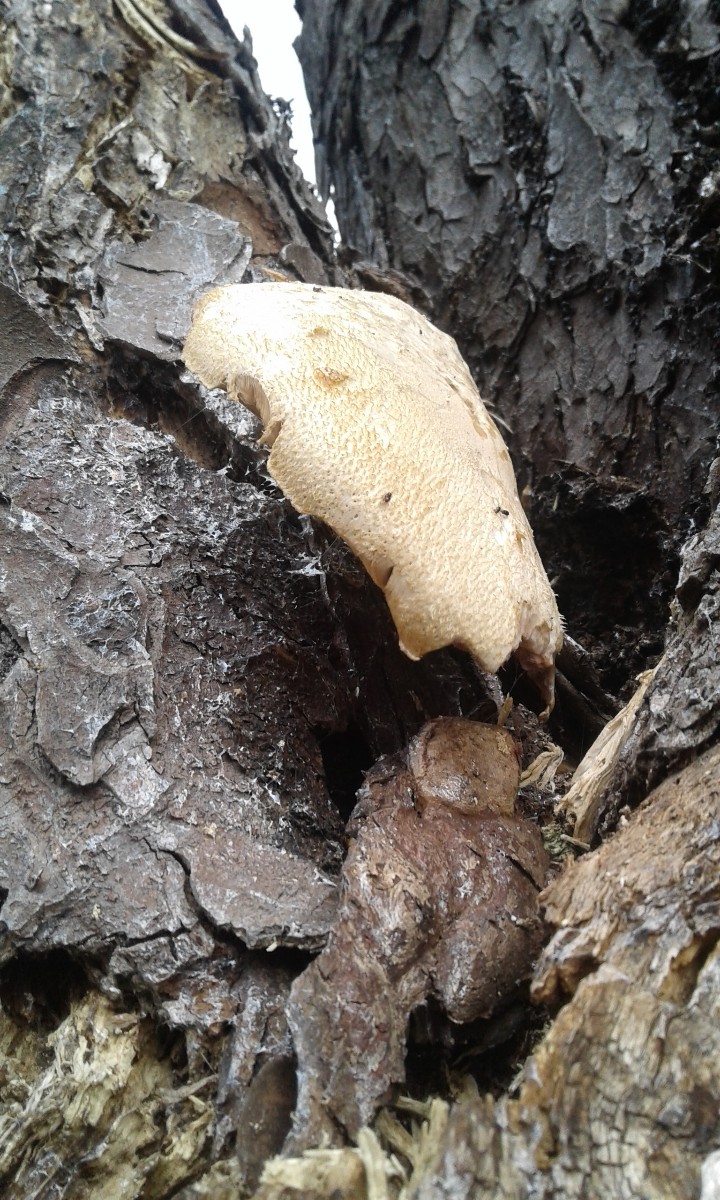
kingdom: Fungi
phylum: Basidiomycota
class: Agaricomycetes
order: Agaricales
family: Pluteaceae
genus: Volvariella
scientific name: Volvariella bombycina
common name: silkehåret posesvamp
